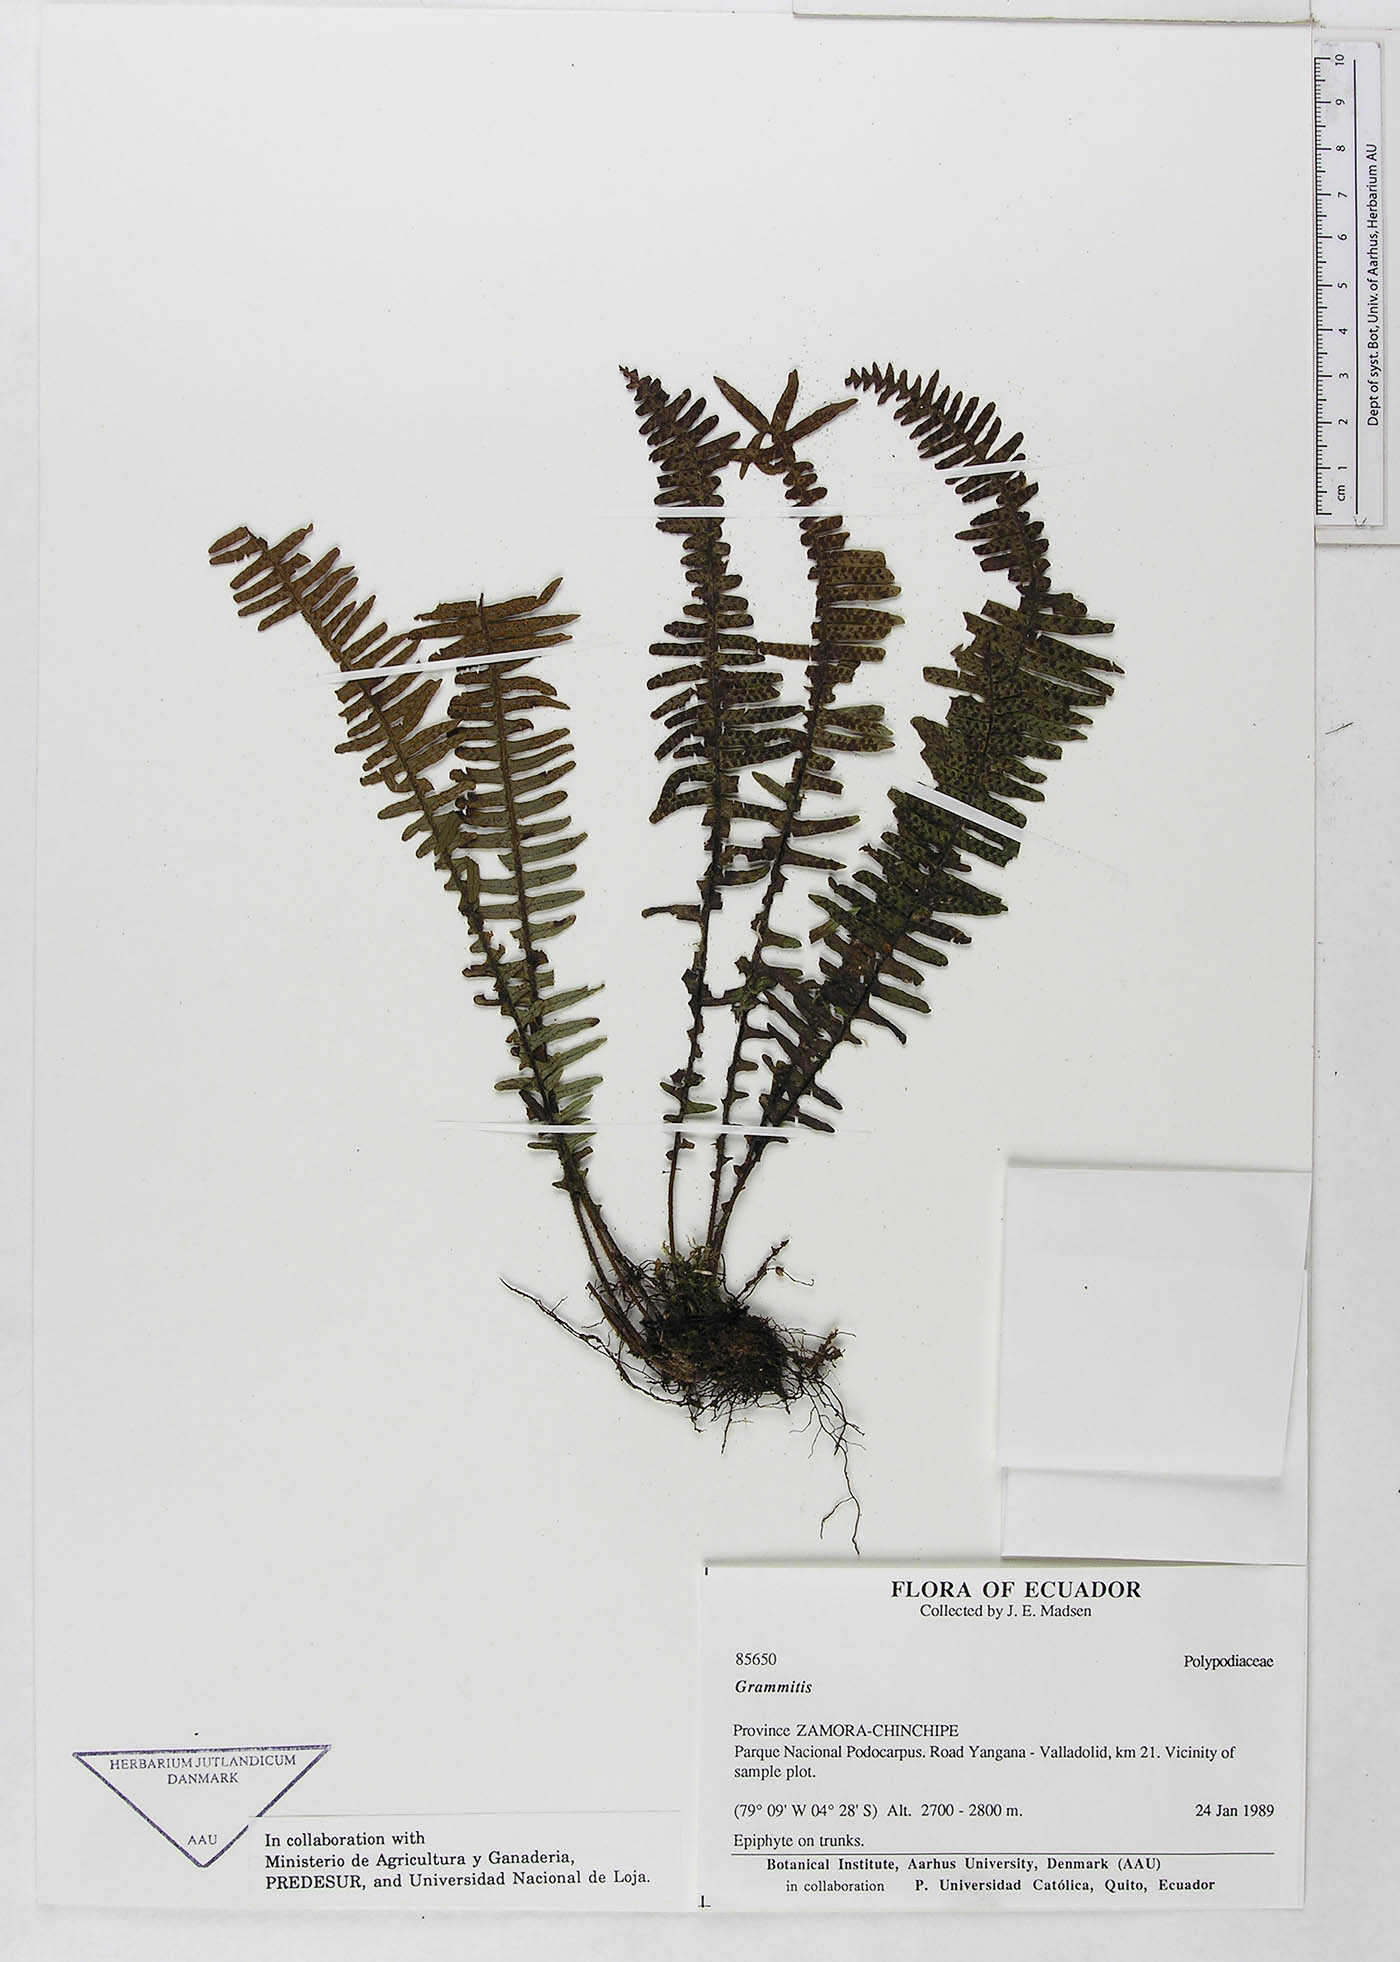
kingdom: Plantae
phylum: Tracheophyta
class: Polypodiopsida
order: Polypodiales
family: Polypodiaceae
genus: Ascogrammitis
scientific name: Ascogrammitis loxensis
